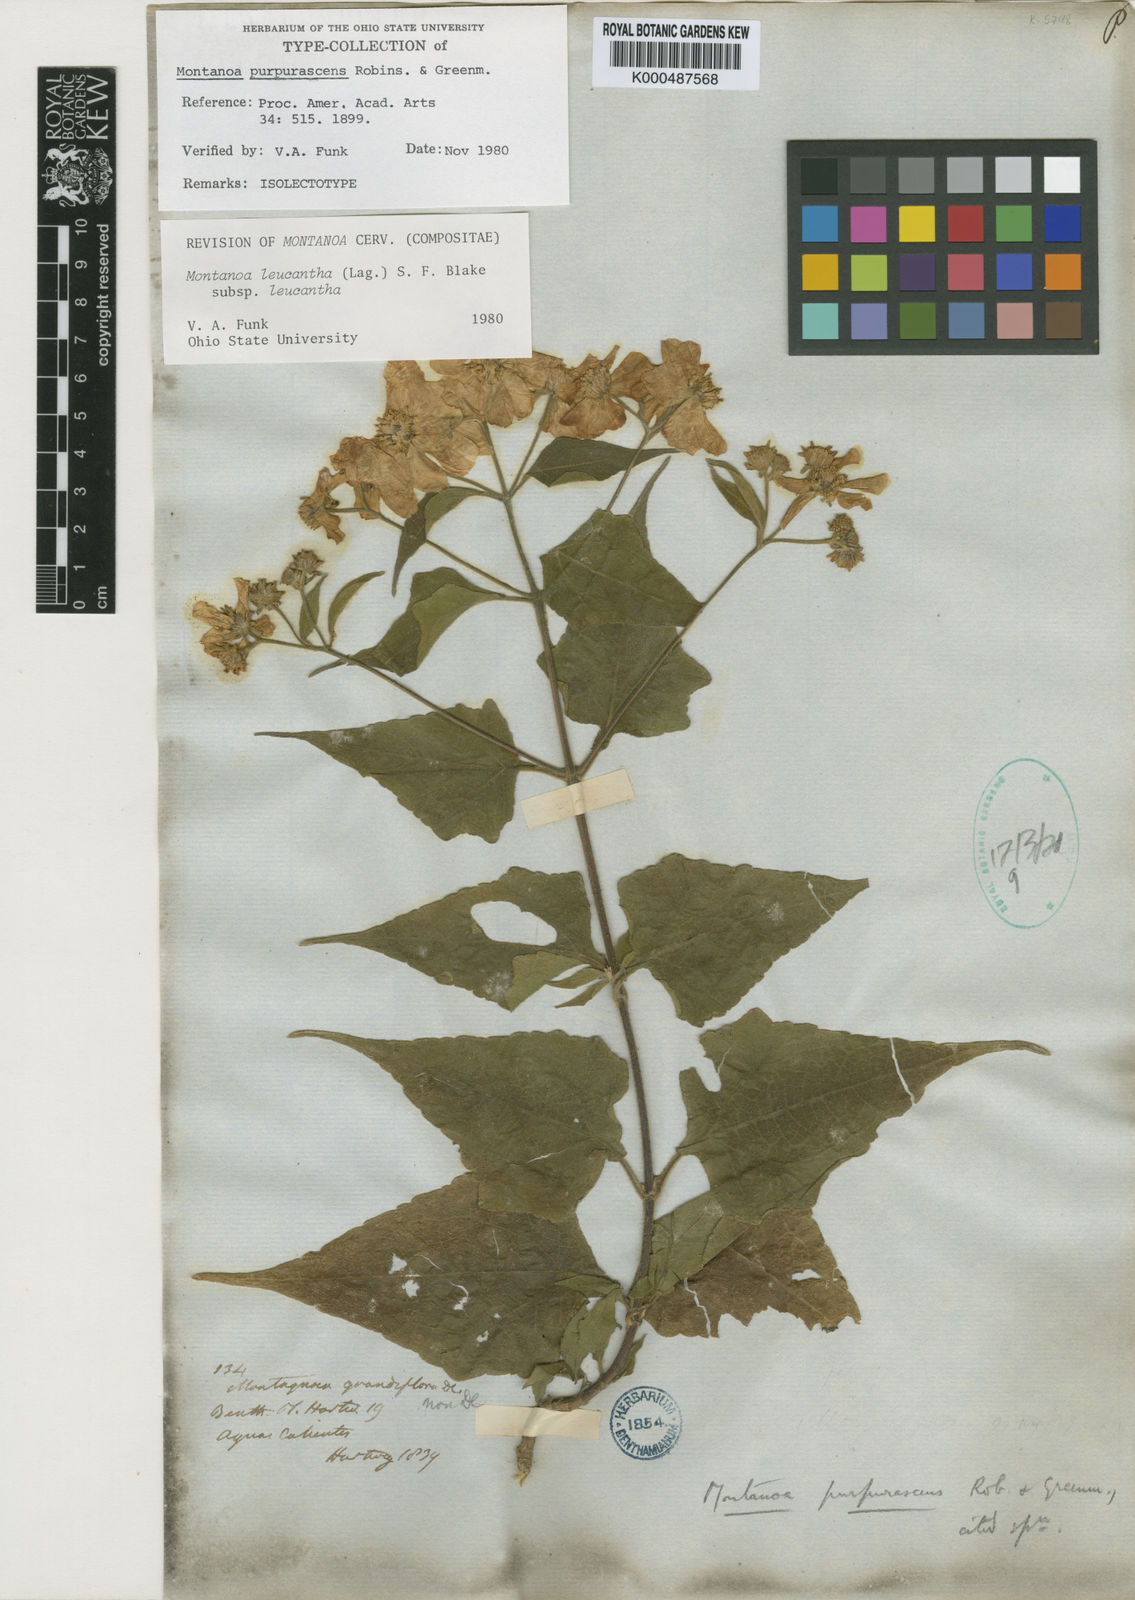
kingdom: Plantae
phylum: Tracheophyta
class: Magnoliopsida
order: Asterales
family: Asteraceae
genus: Montanoa
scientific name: Montanoa leucantha
